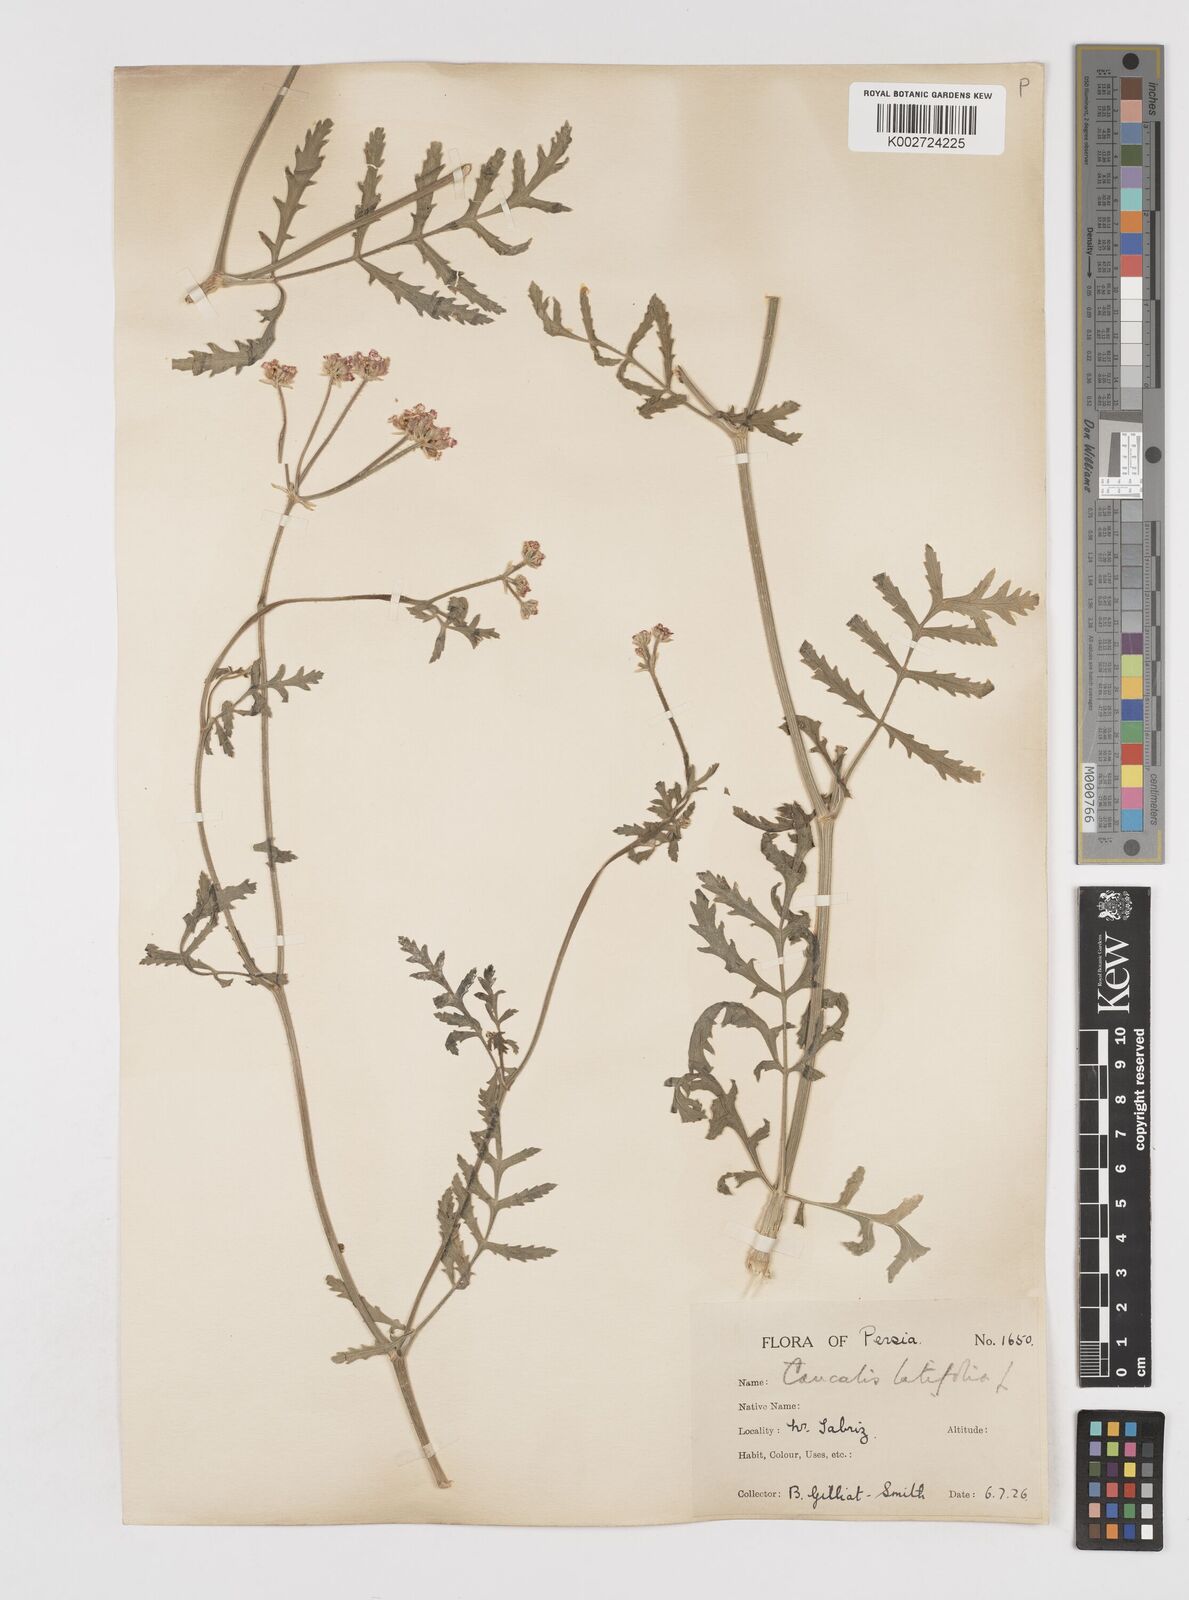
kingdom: Plantae
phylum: Tracheophyta
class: Magnoliopsida
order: Apiales
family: Apiaceae
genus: Turgenia
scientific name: Turgenia latifolia
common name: Greater bur-parsley
